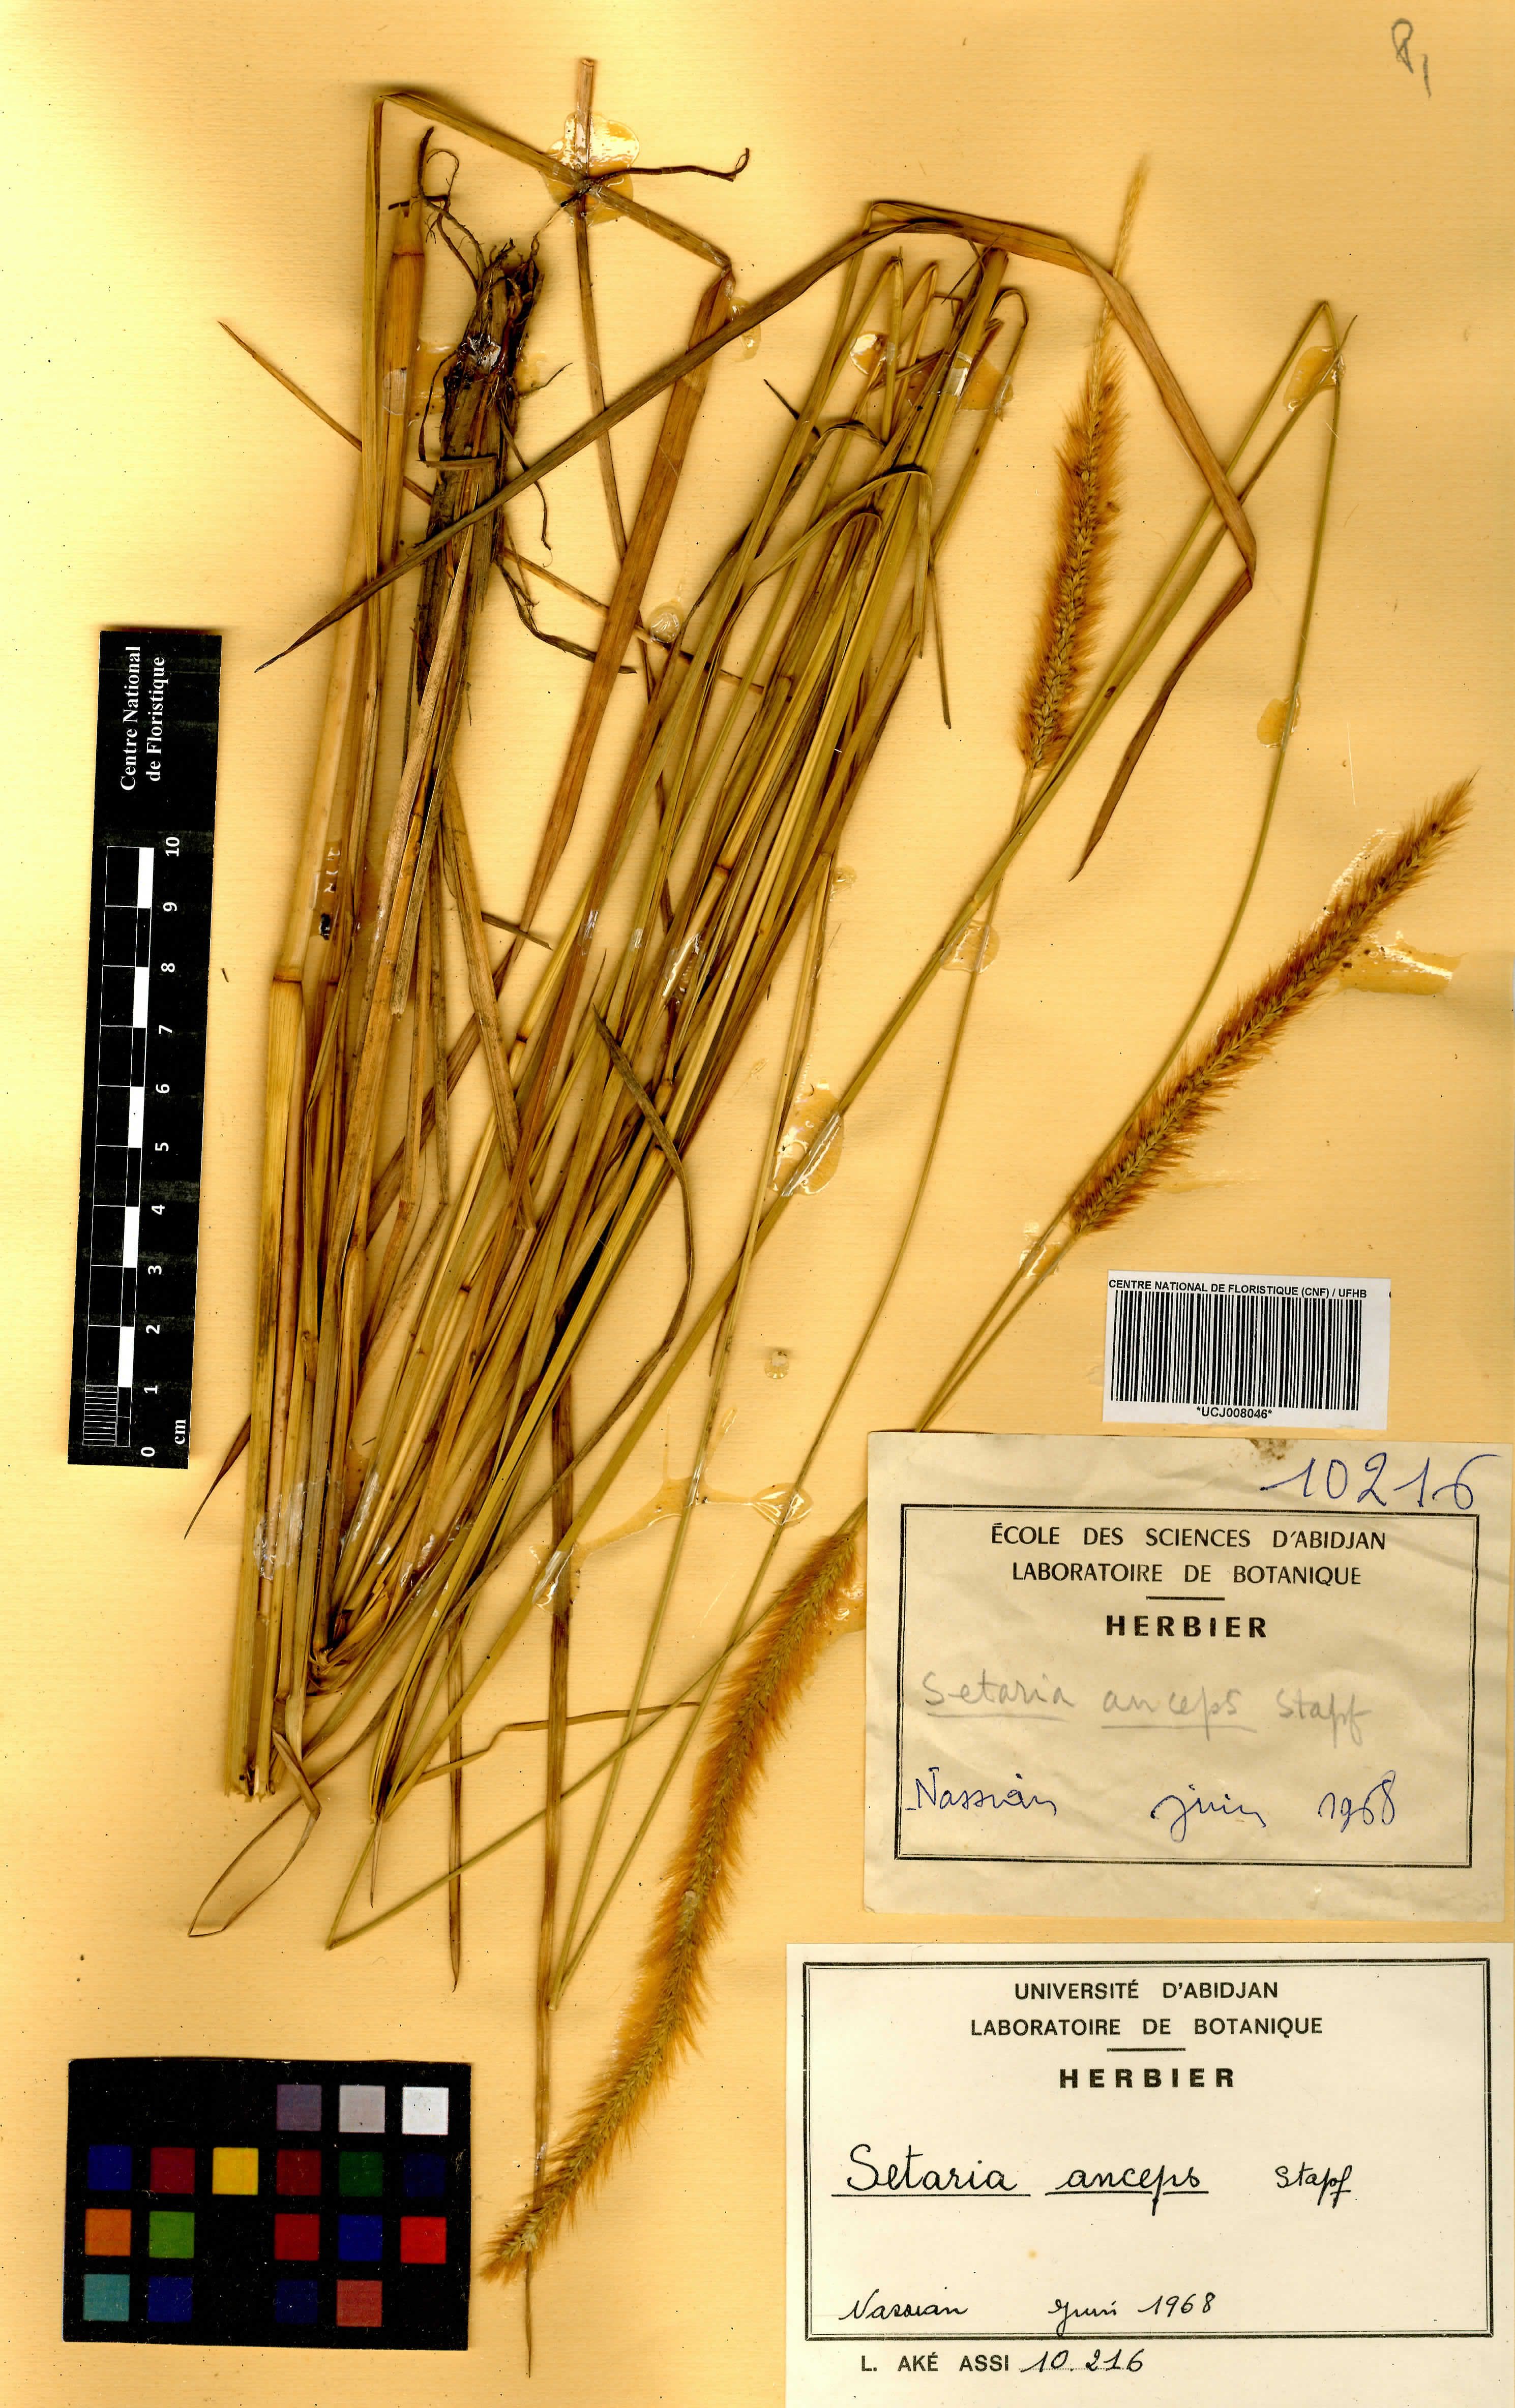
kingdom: Plantae
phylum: Tracheophyta
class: Liliopsida
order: Poales
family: Poaceae
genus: Setaria
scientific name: Setaria sphacelata
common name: African bristlegrass
